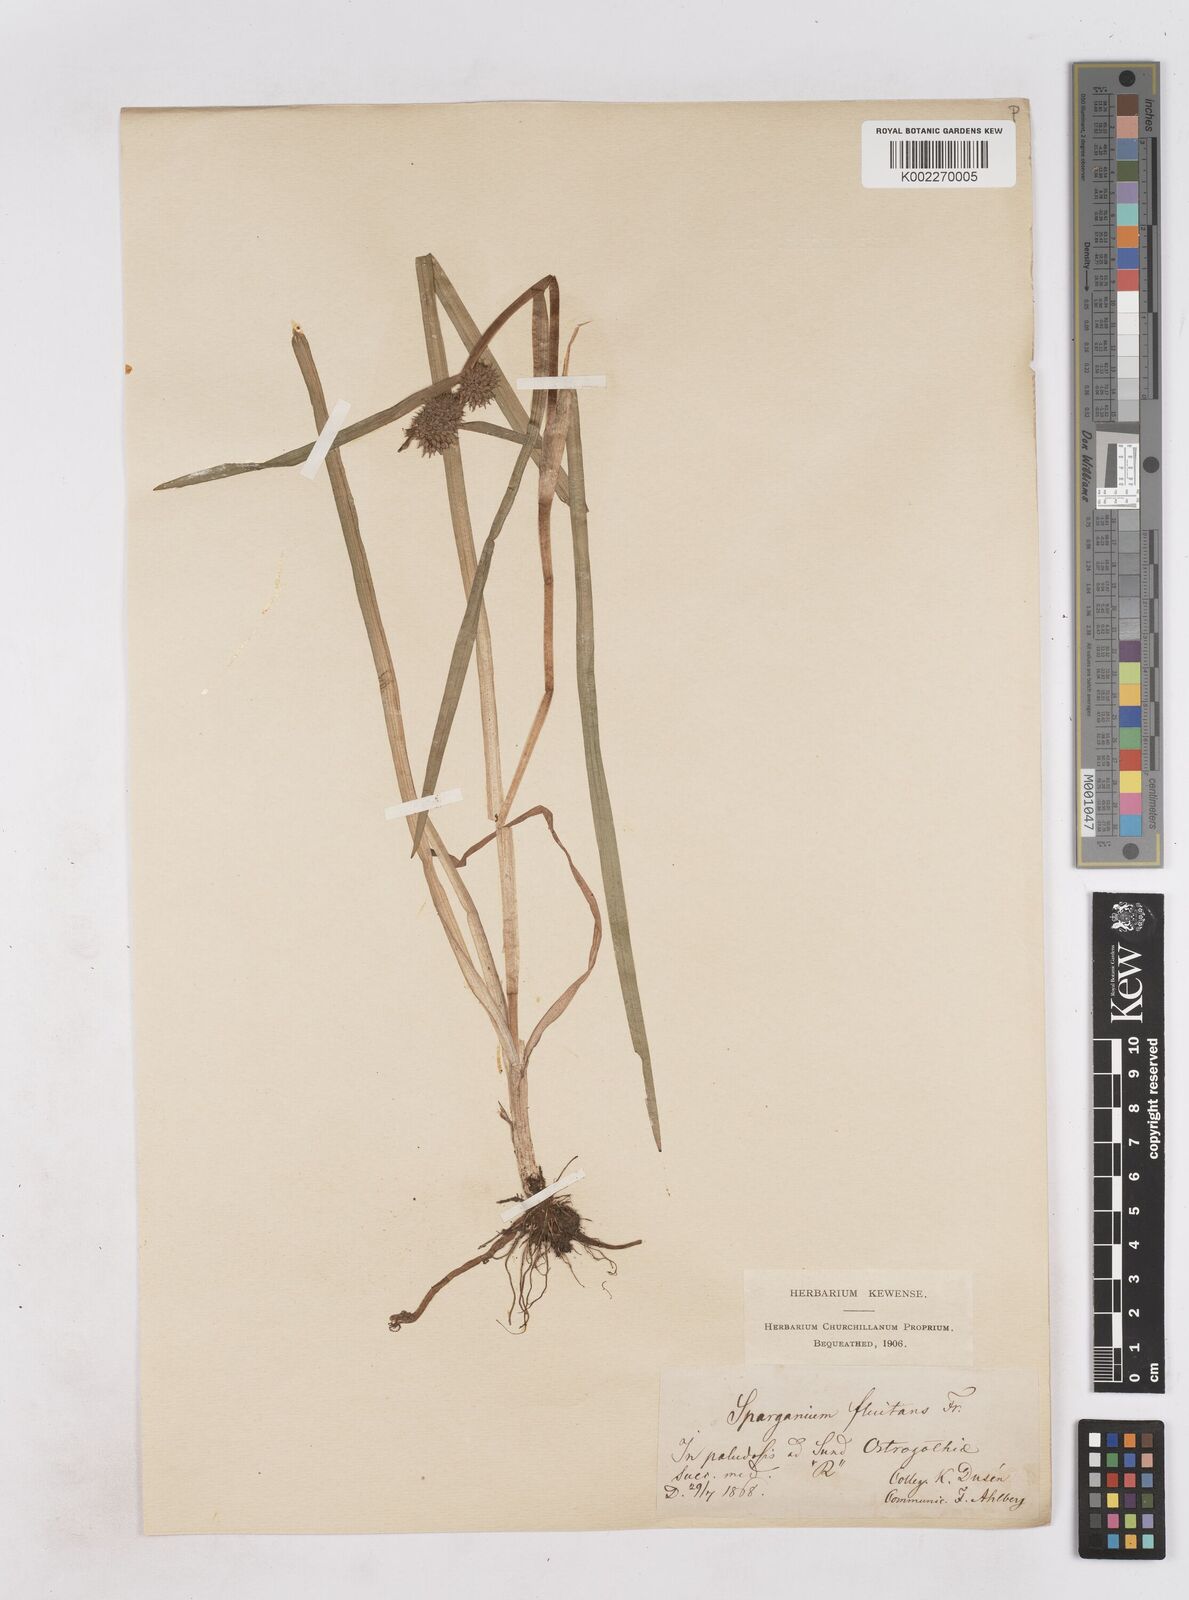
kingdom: Plantae
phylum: Tracheophyta
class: Liliopsida
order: Poales
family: Typhaceae
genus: Sparganium
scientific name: Sparganium angustifolium
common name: Floating bur-reed
